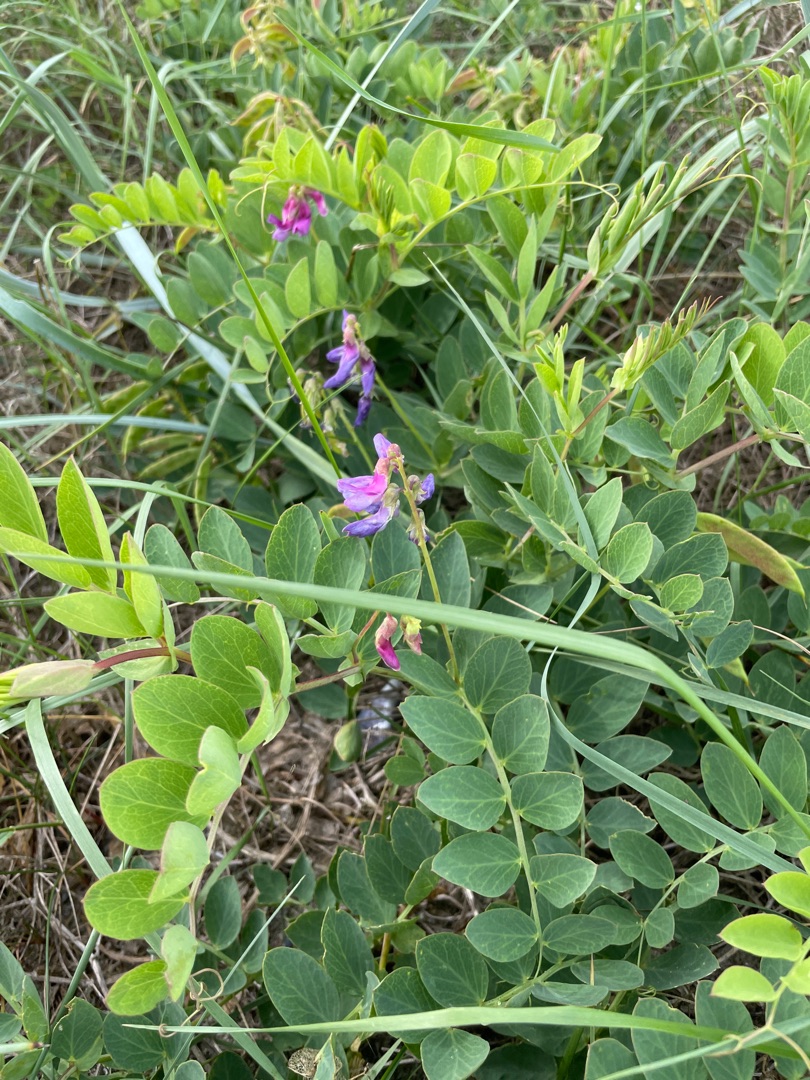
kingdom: Plantae
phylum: Tracheophyta
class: Magnoliopsida
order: Fabales
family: Fabaceae
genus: Lathyrus
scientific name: Lathyrus japonicus
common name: Strand-fladbælg
